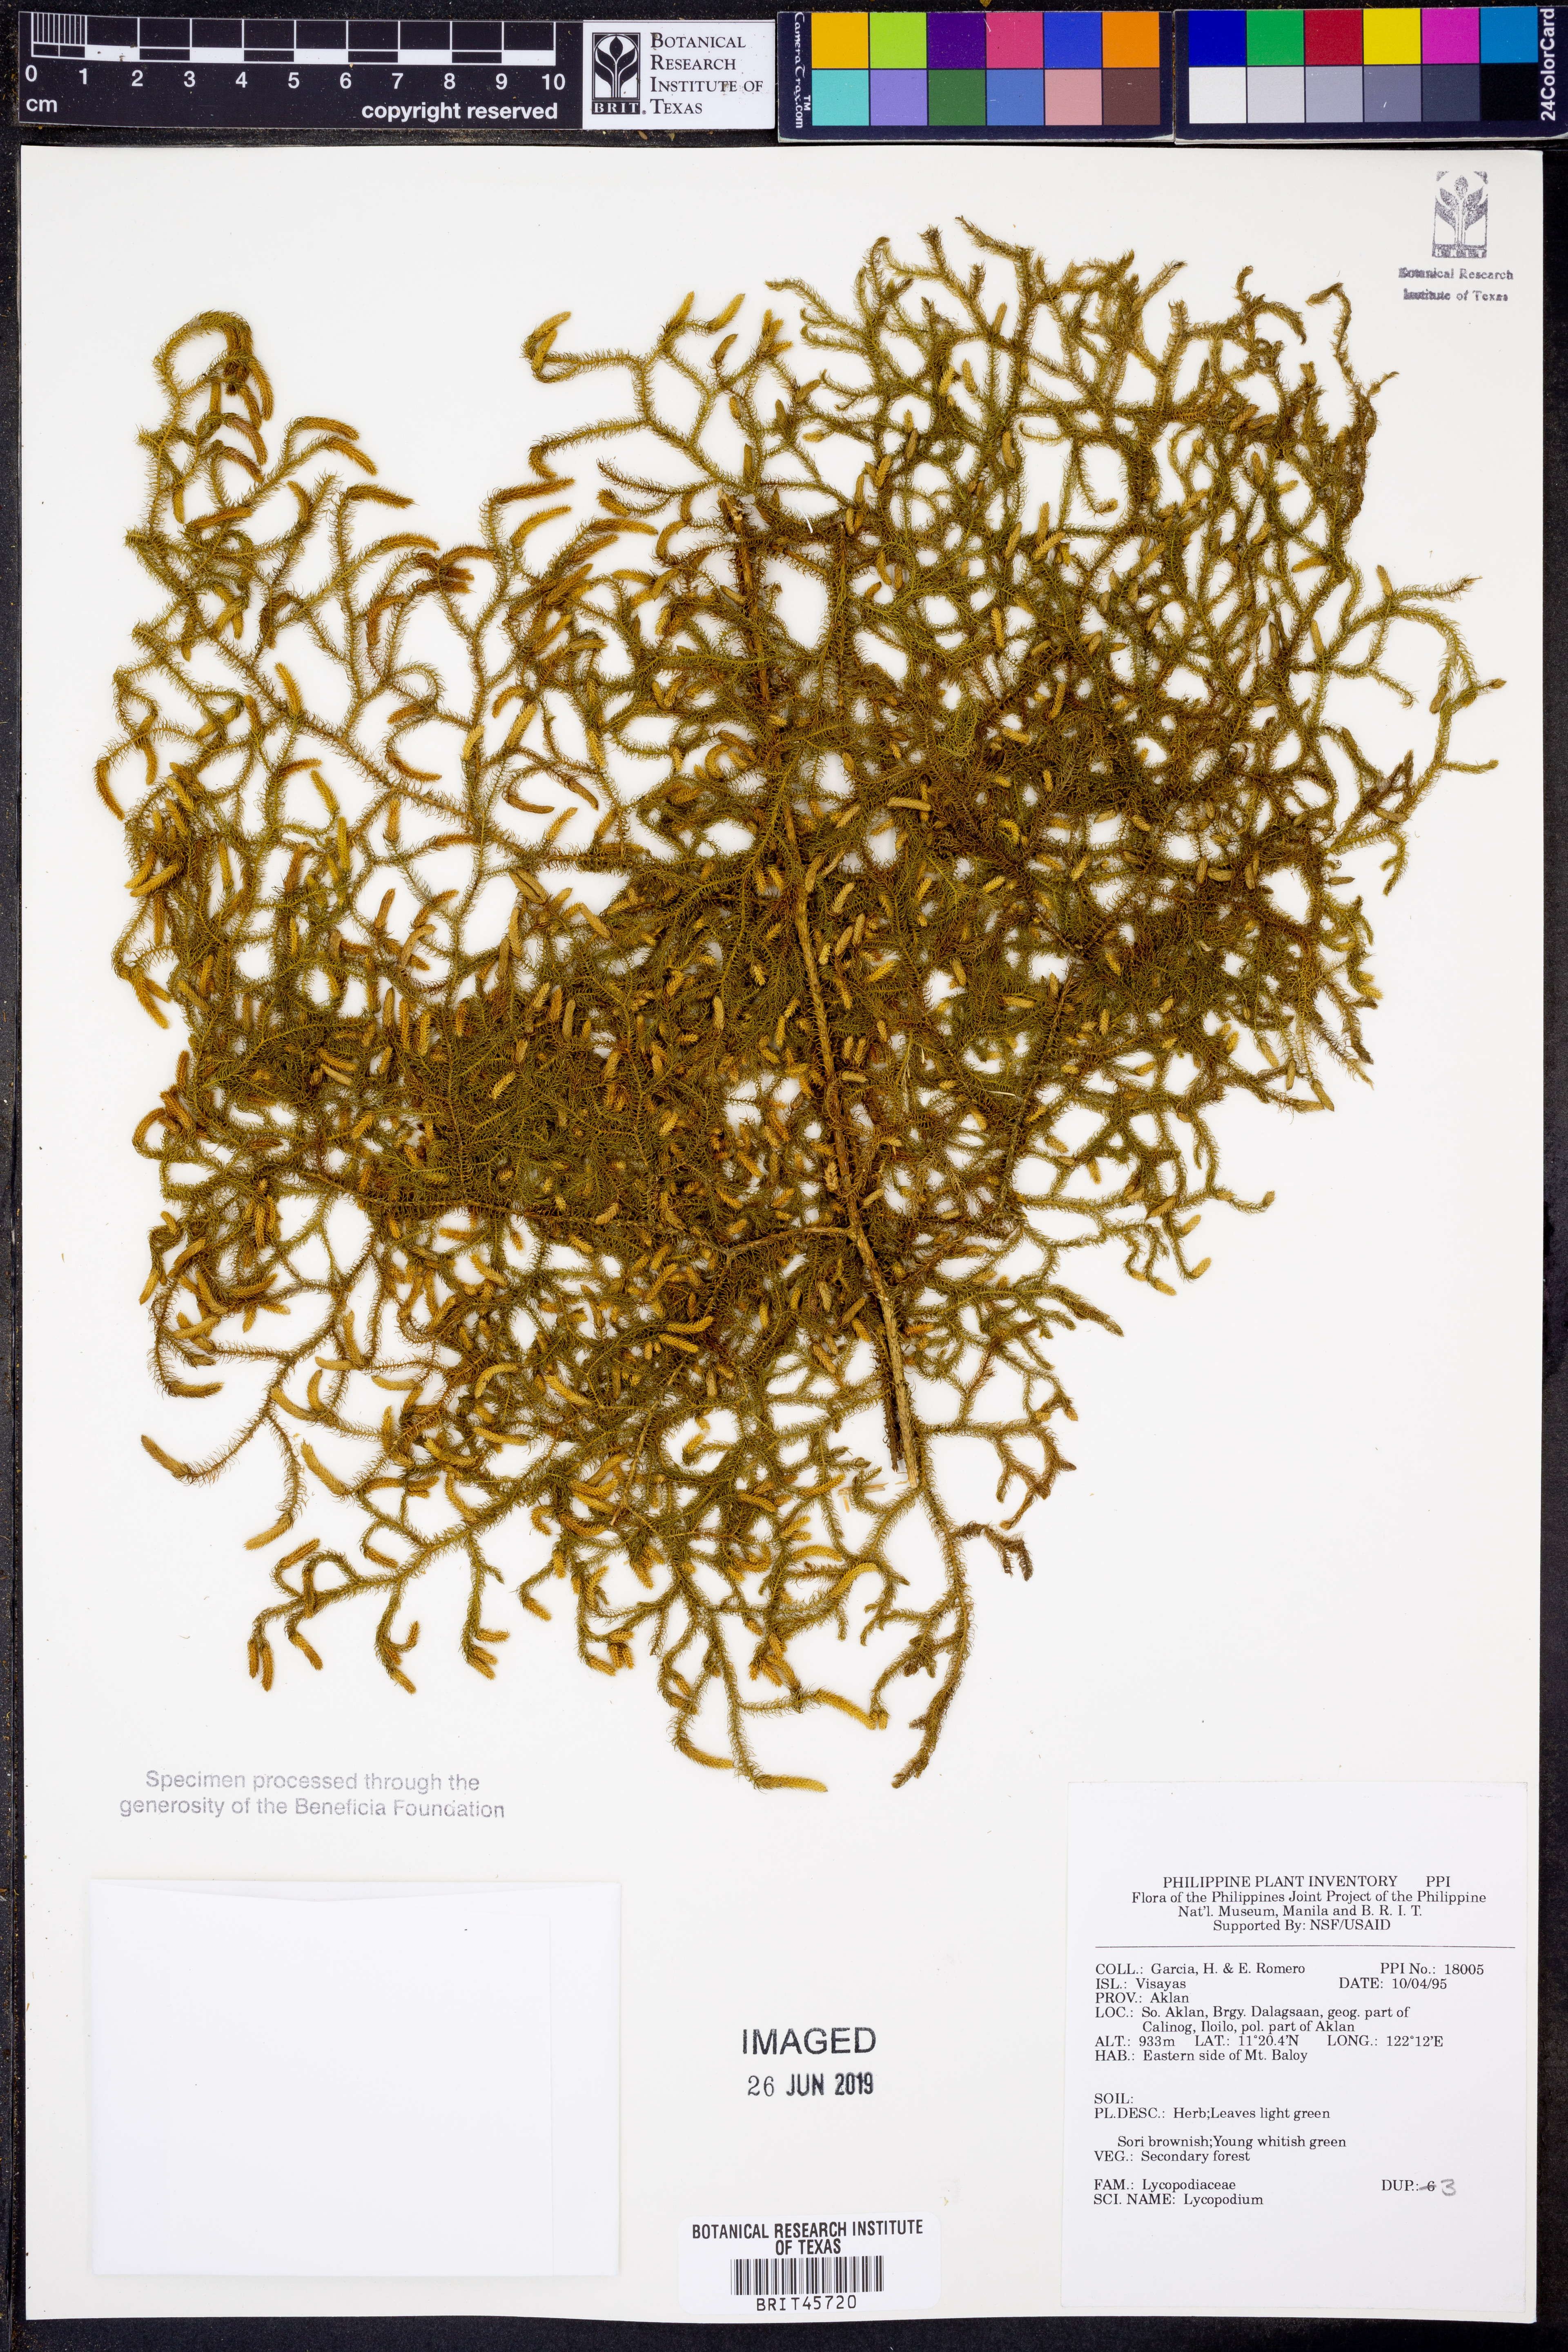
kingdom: Plantae
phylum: Tracheophyta
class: Lycopodiopsida
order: Lycopodiales
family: Lycopodiaceae
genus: Lycopodium
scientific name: Lycopodium
